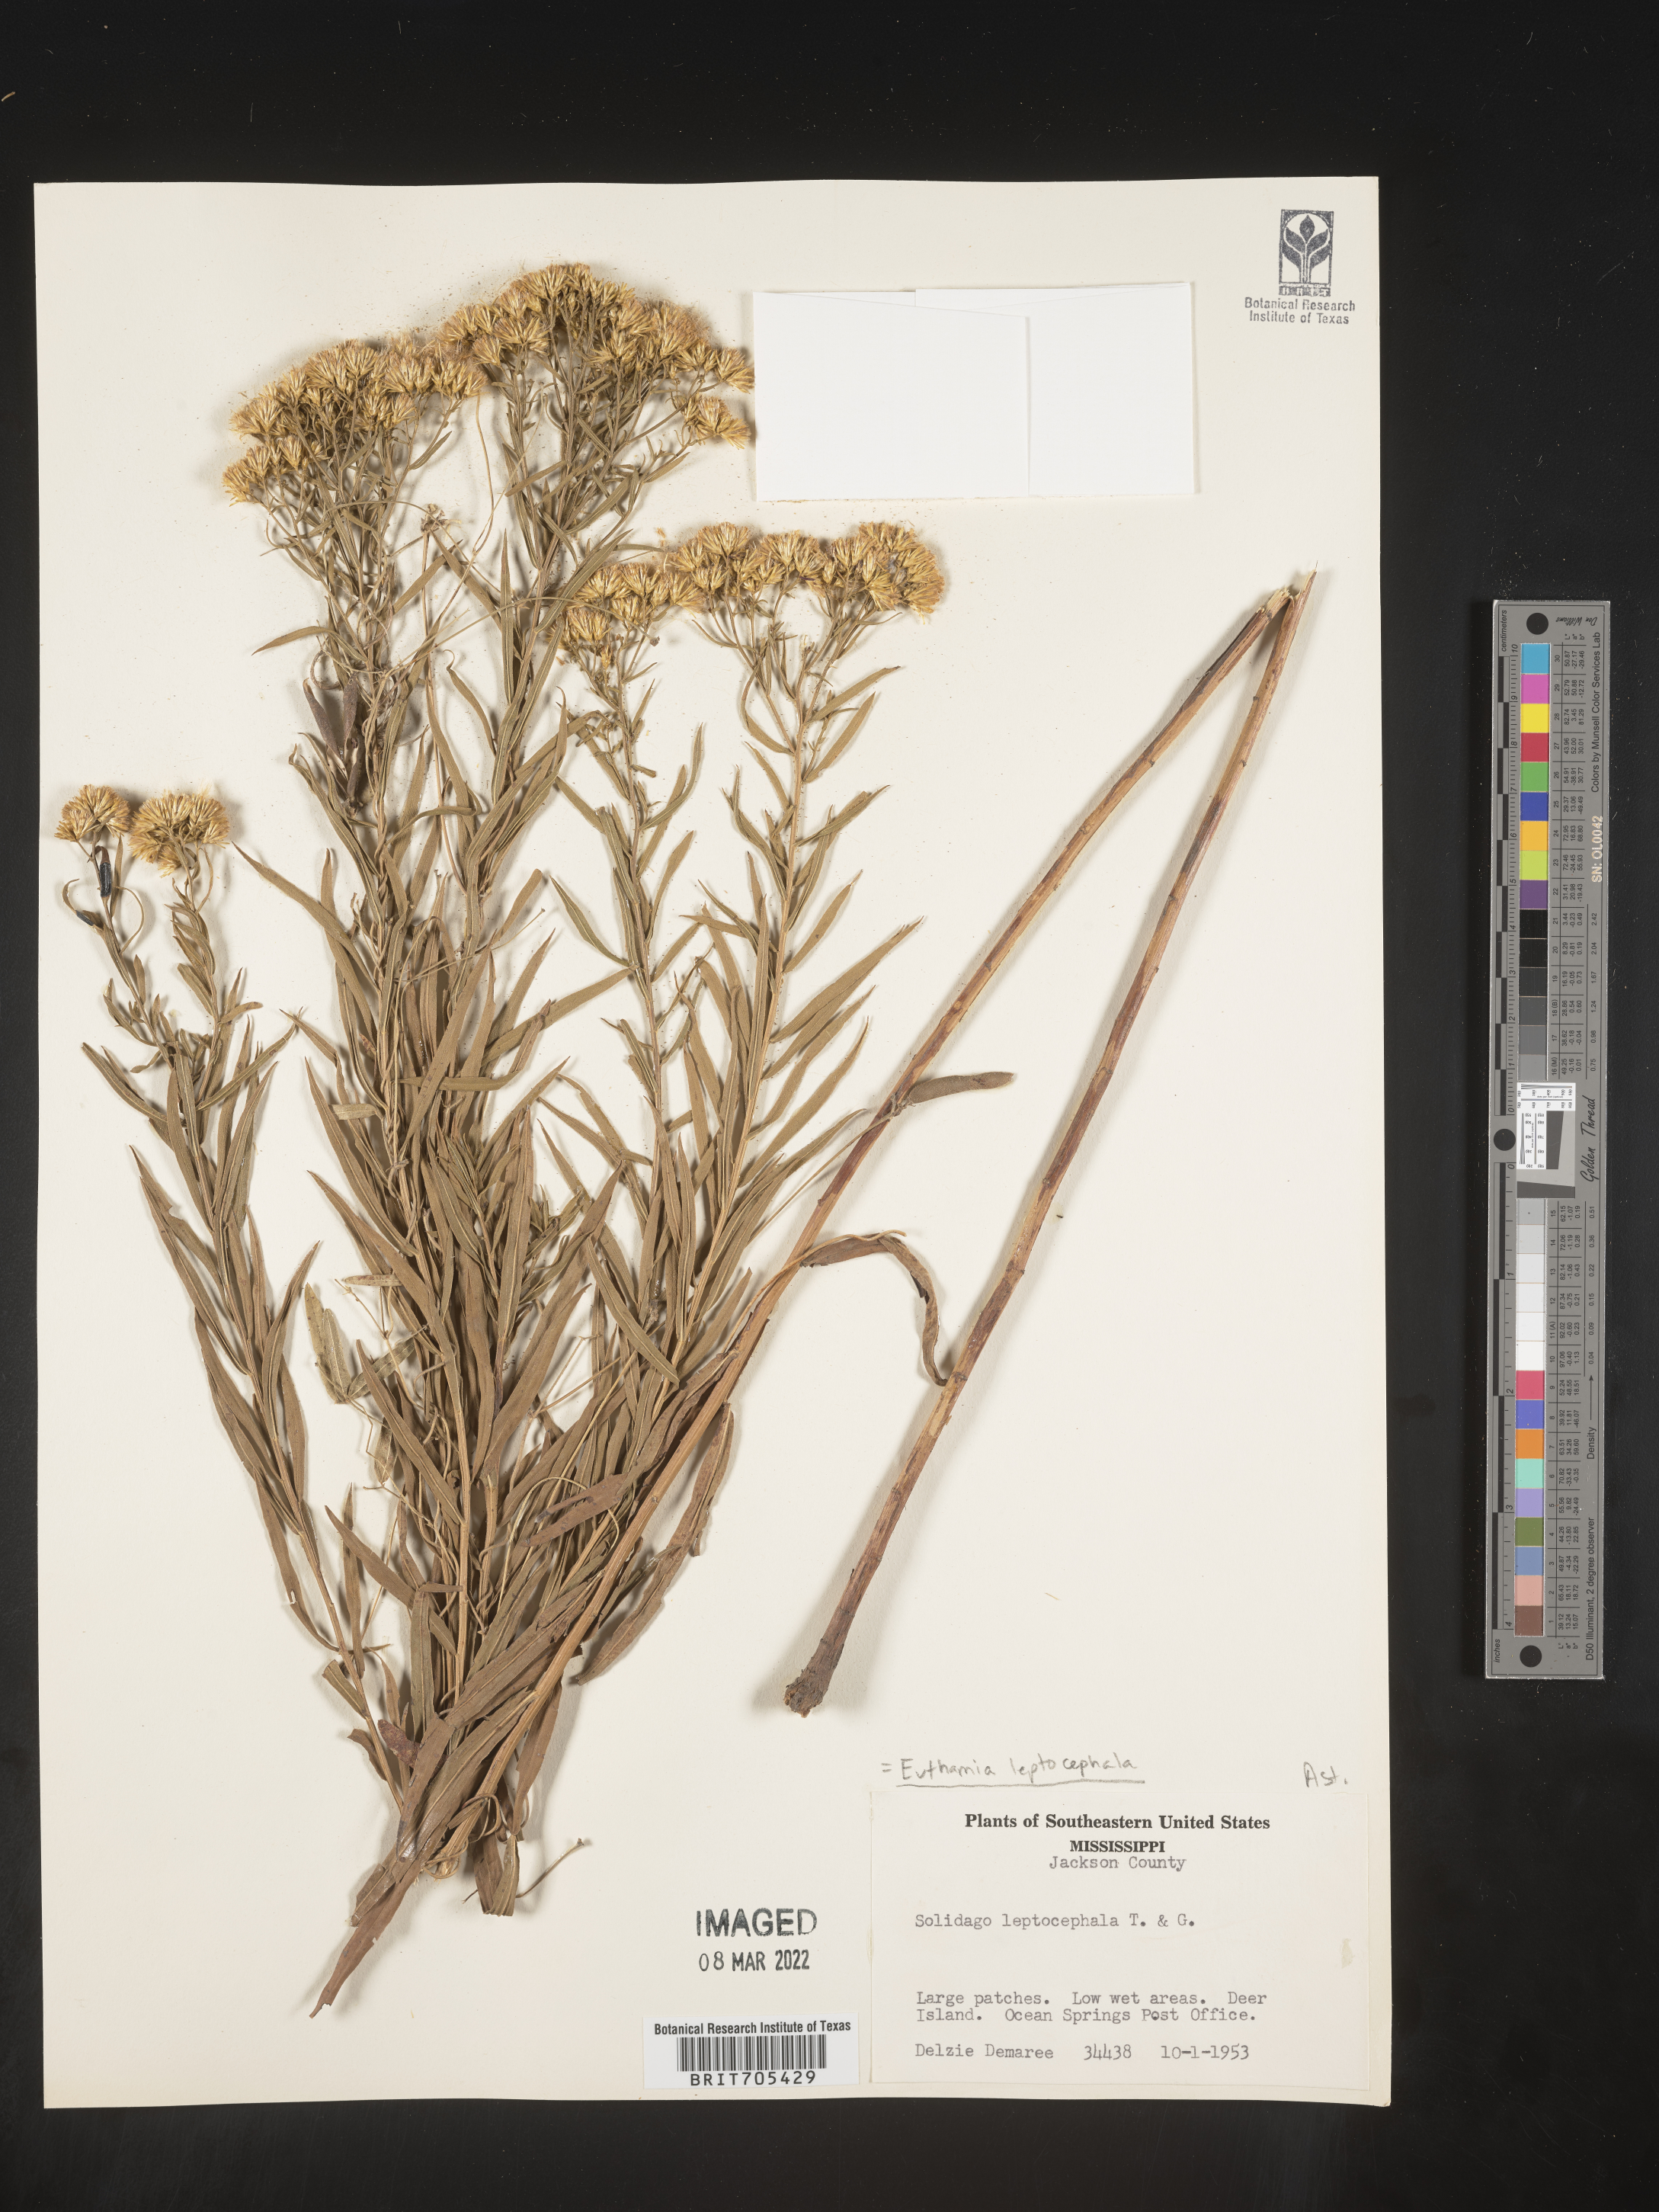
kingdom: Plantae
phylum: Tracheophyta
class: Magnoliopsida
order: Asterales
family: Asteraceae
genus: Euthamia
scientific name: Euthamia
